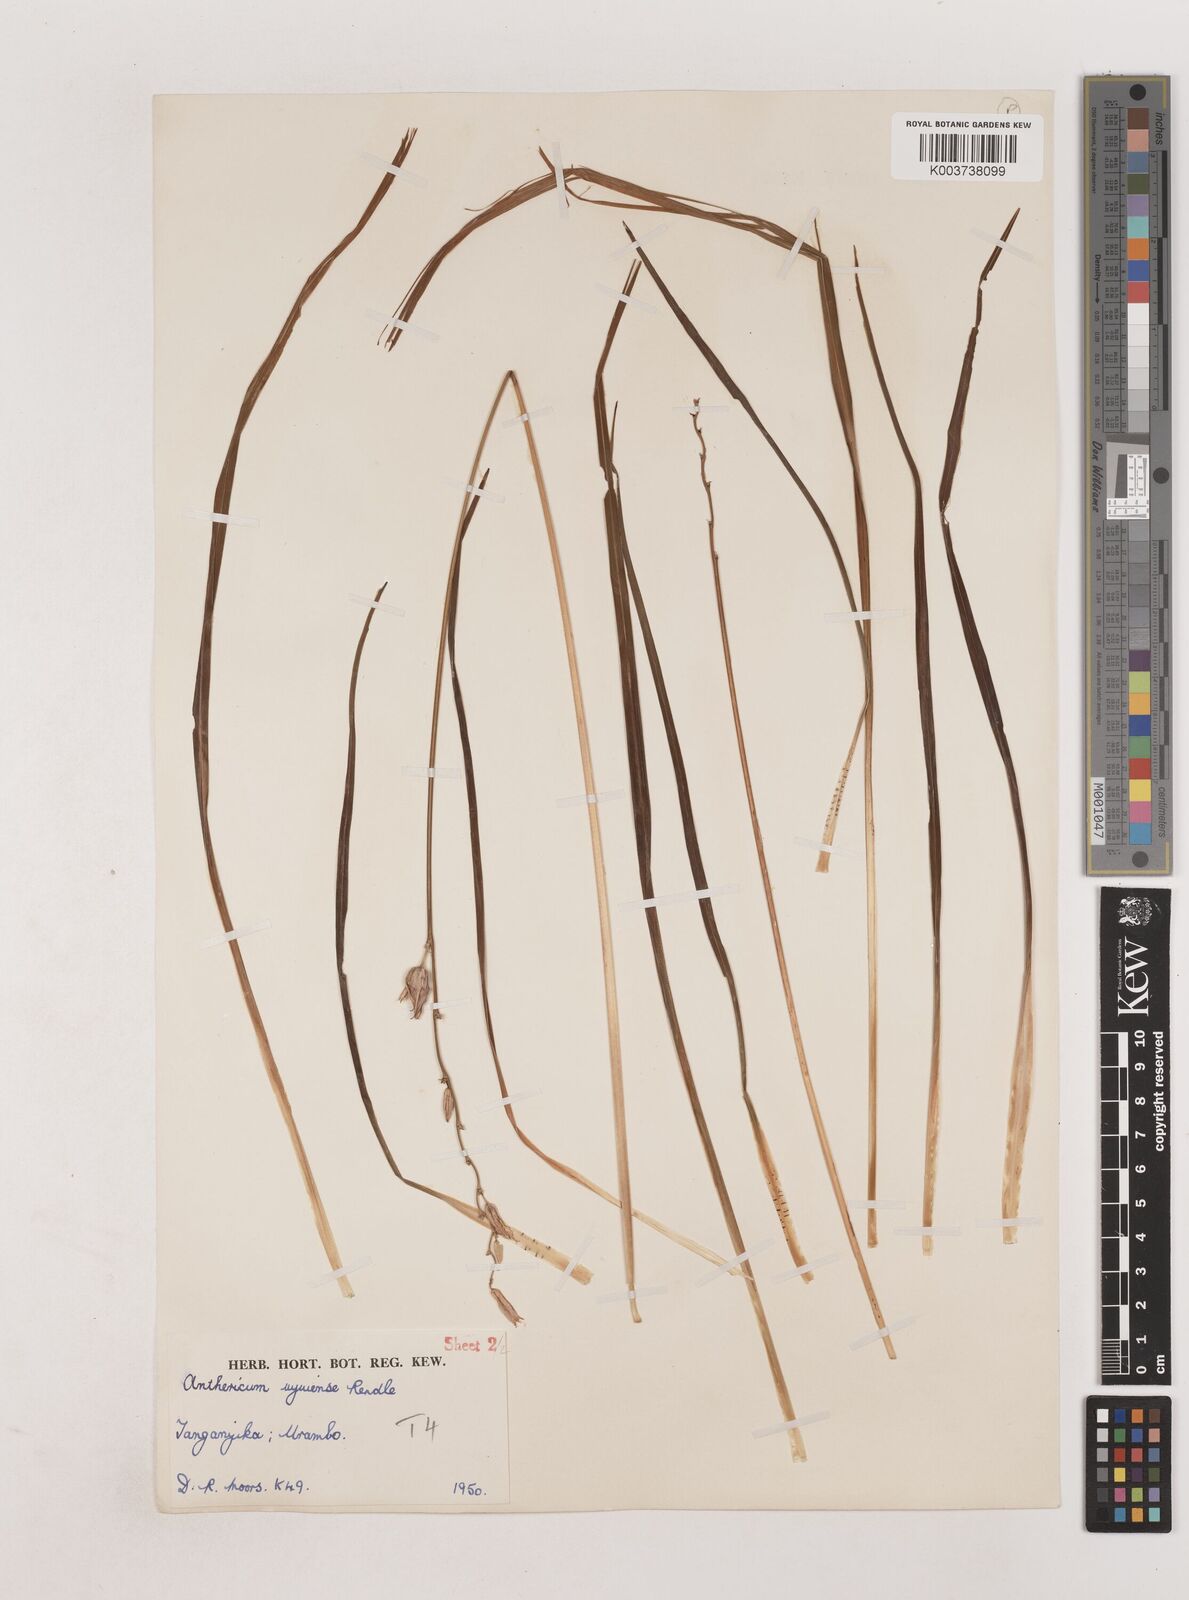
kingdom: Plantae
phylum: Tracheophyta
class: Liliopsida
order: Asparagales
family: Asparagaceae
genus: Chlorophytum
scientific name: Chlorophytum cameronii
